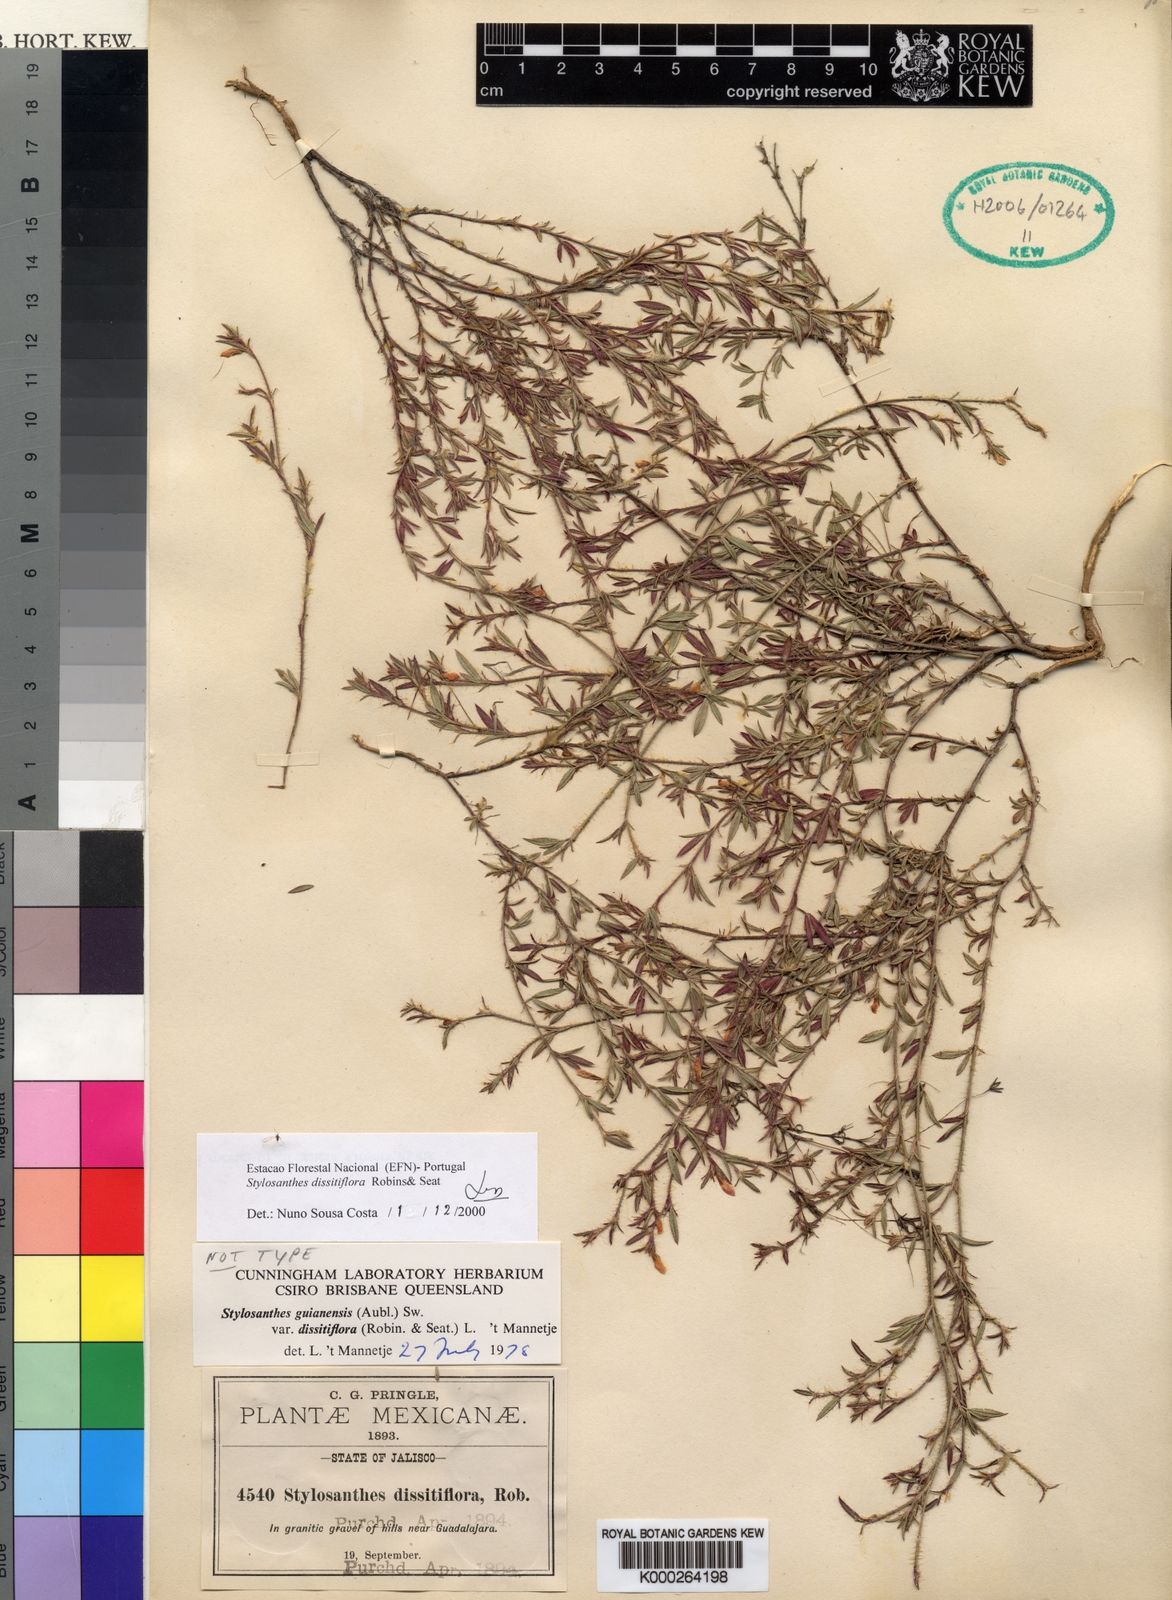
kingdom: Plantae
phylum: Tracheophyta
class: Magnoliopsida
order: Fabales
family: Fabaceae
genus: Stylosanthes
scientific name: Stylosanthes guianensis
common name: Pencil flower
